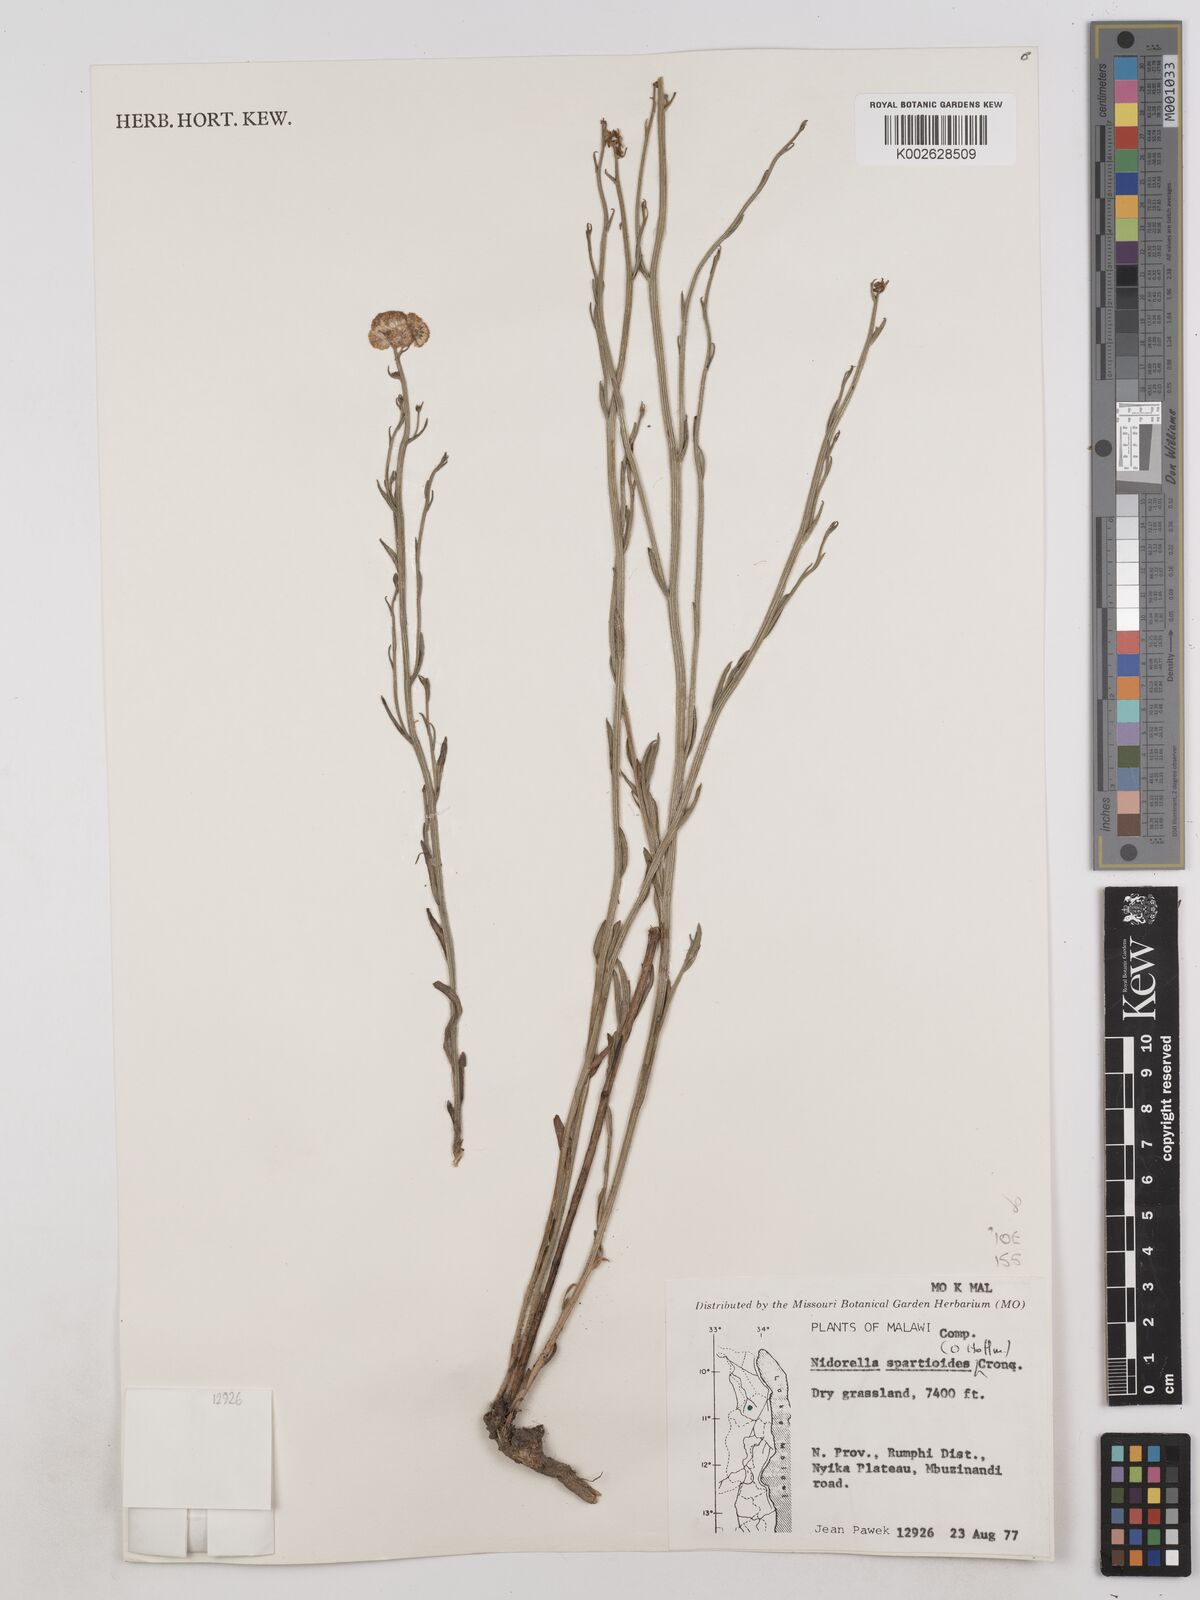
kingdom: Plantae
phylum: Tracheophyta
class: Magnoliopsida
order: Asterales
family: Asteraceae
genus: Nidorella
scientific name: Nidorella spartioides
